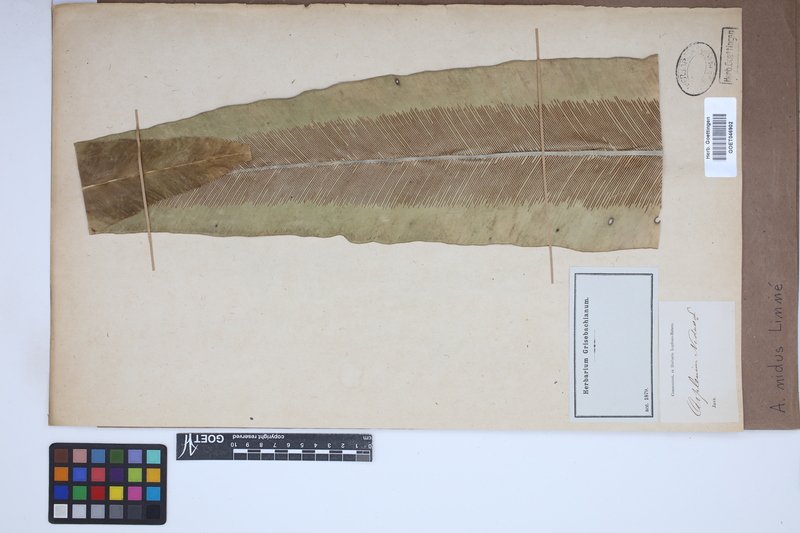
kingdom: Plantae
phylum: Tracheophyta
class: Polypodiopsida
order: Polypodiales
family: Aspleniaceae
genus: Asplenium
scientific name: Asplenium nidus
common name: Bird's-nest fern
